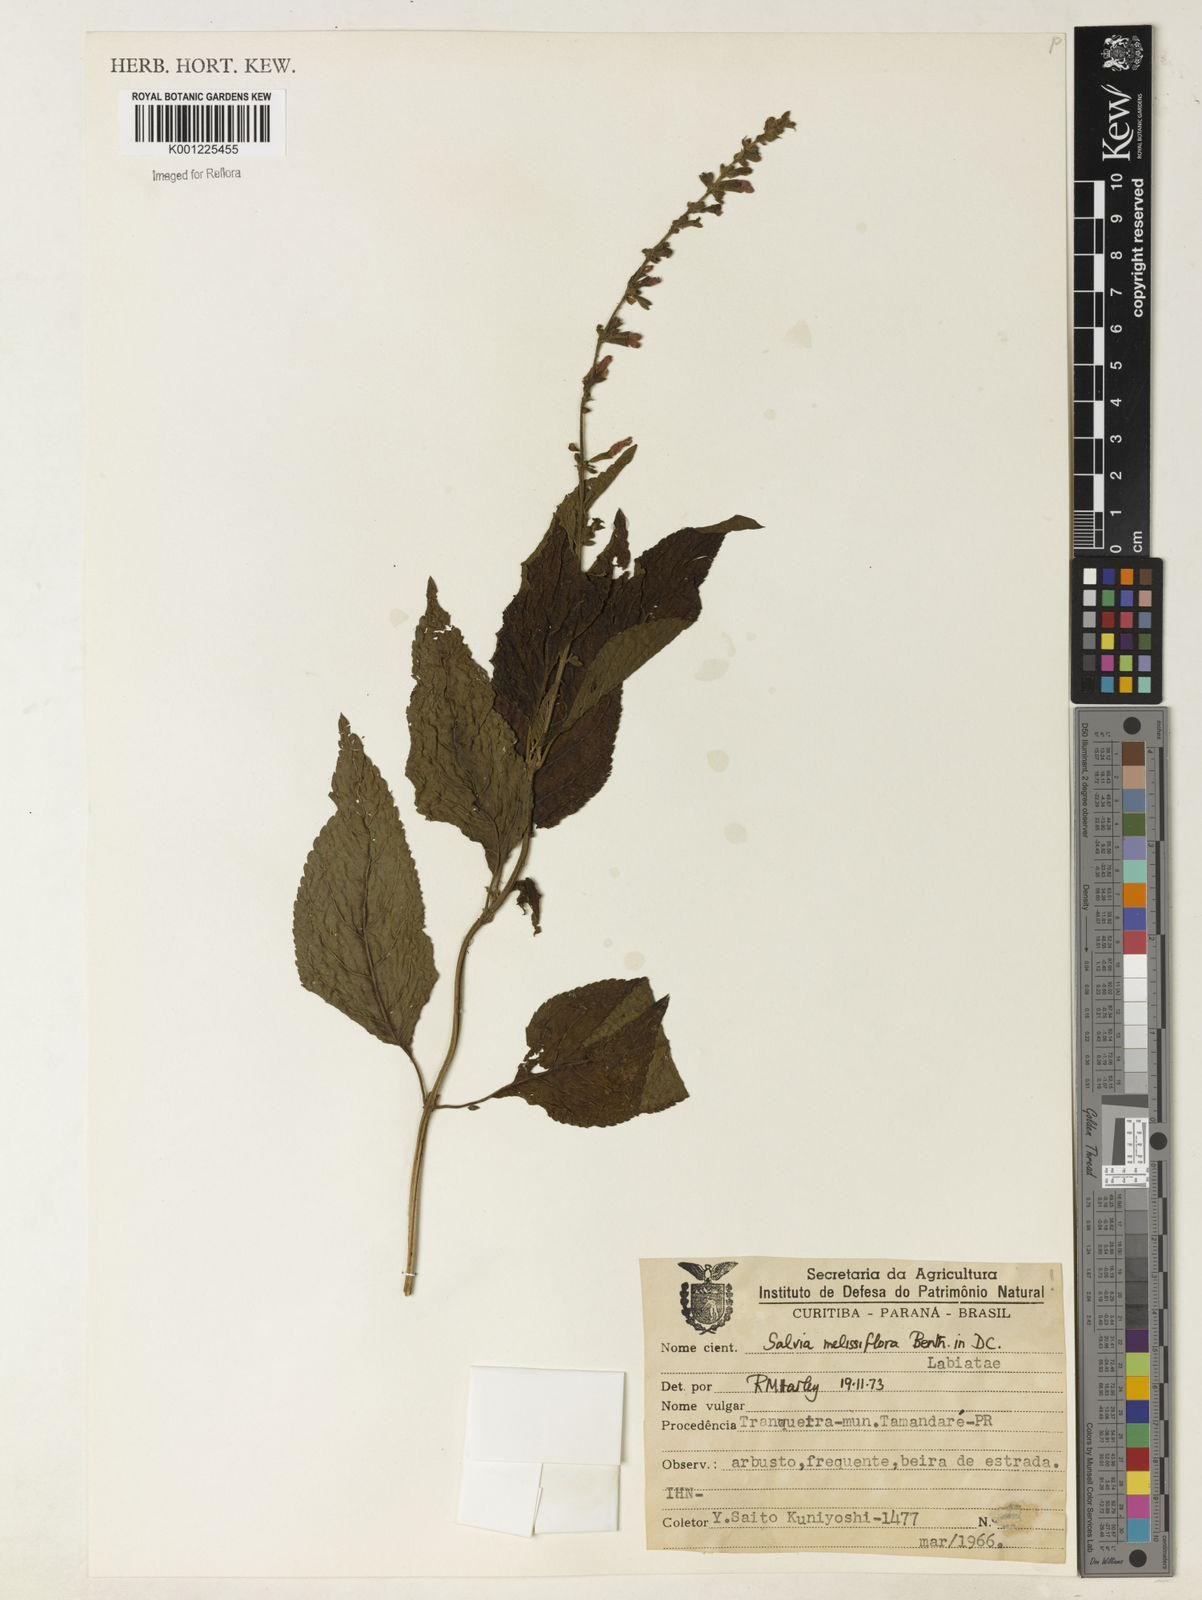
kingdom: Plantae
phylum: Tracheophyta
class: Magnoliopsida
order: Lamiales
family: Lamiaceae
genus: Salvia
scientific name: Salvia melissiflora
